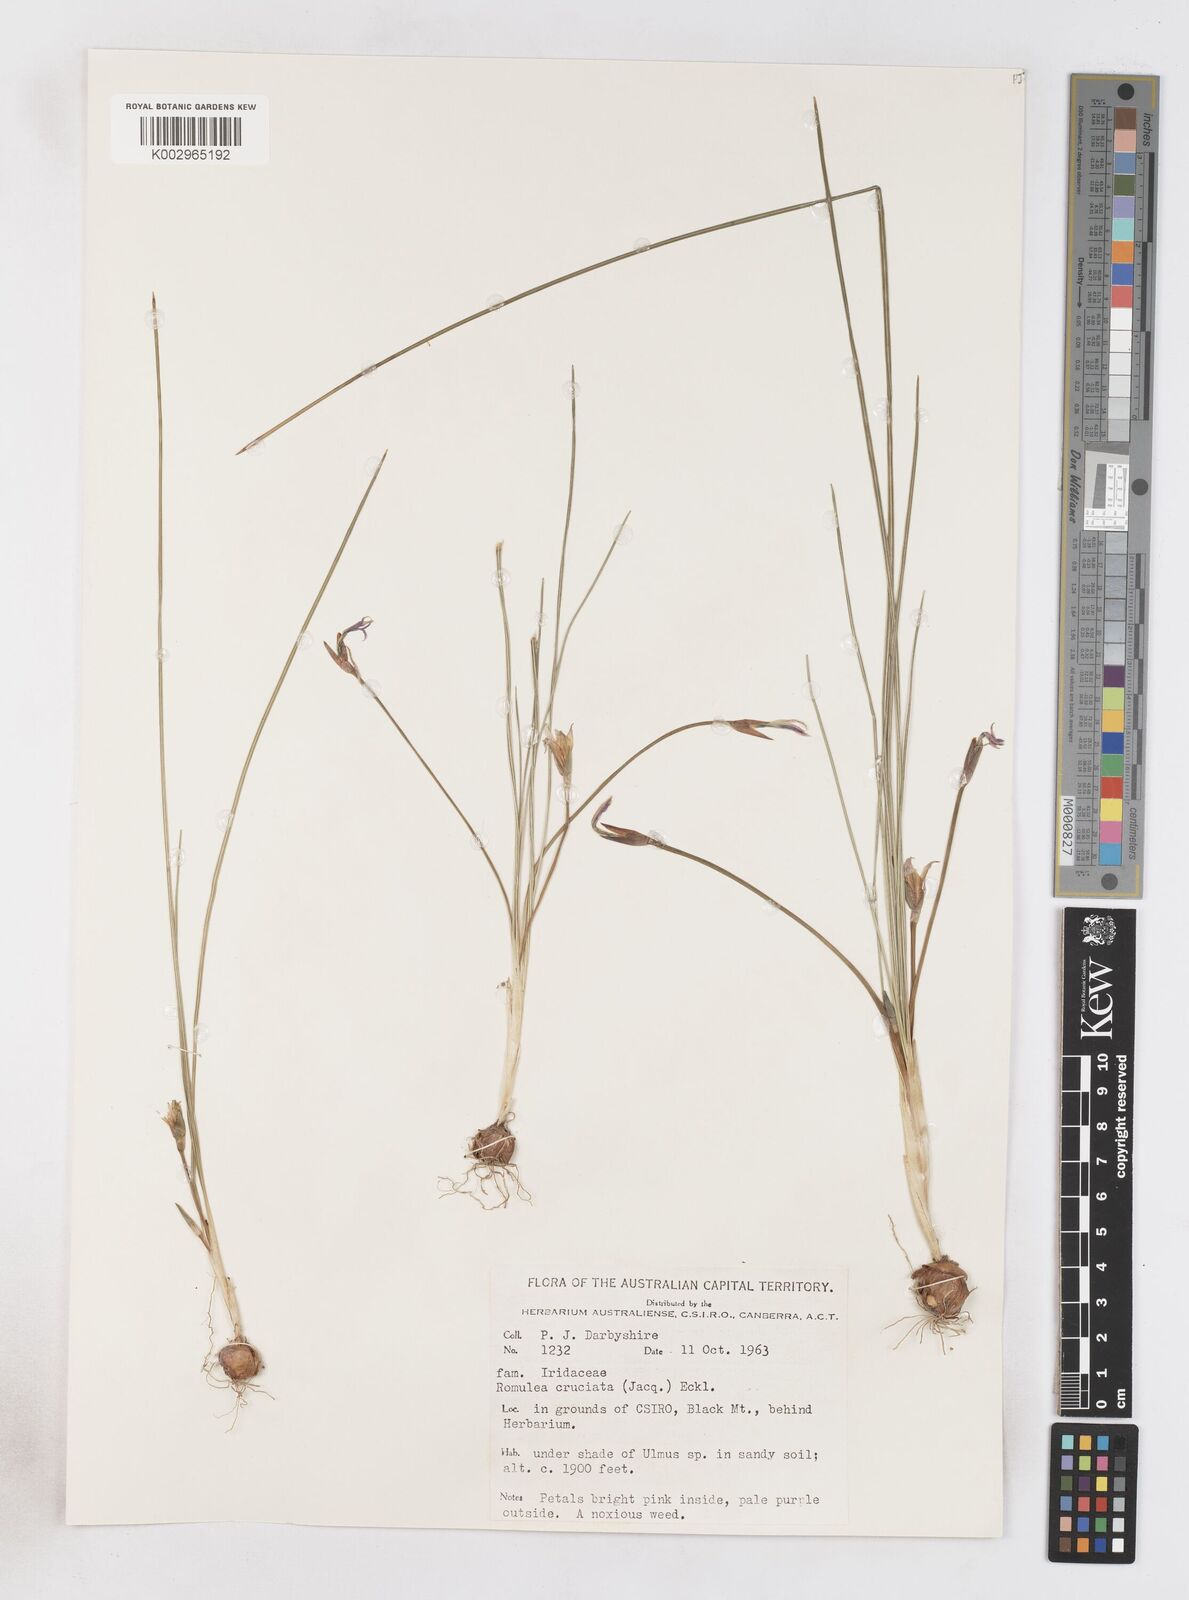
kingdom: Plantae
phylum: Tracheophyta
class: Liliopsida
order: Asparagales
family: Iridaceae
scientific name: Iridaceae
